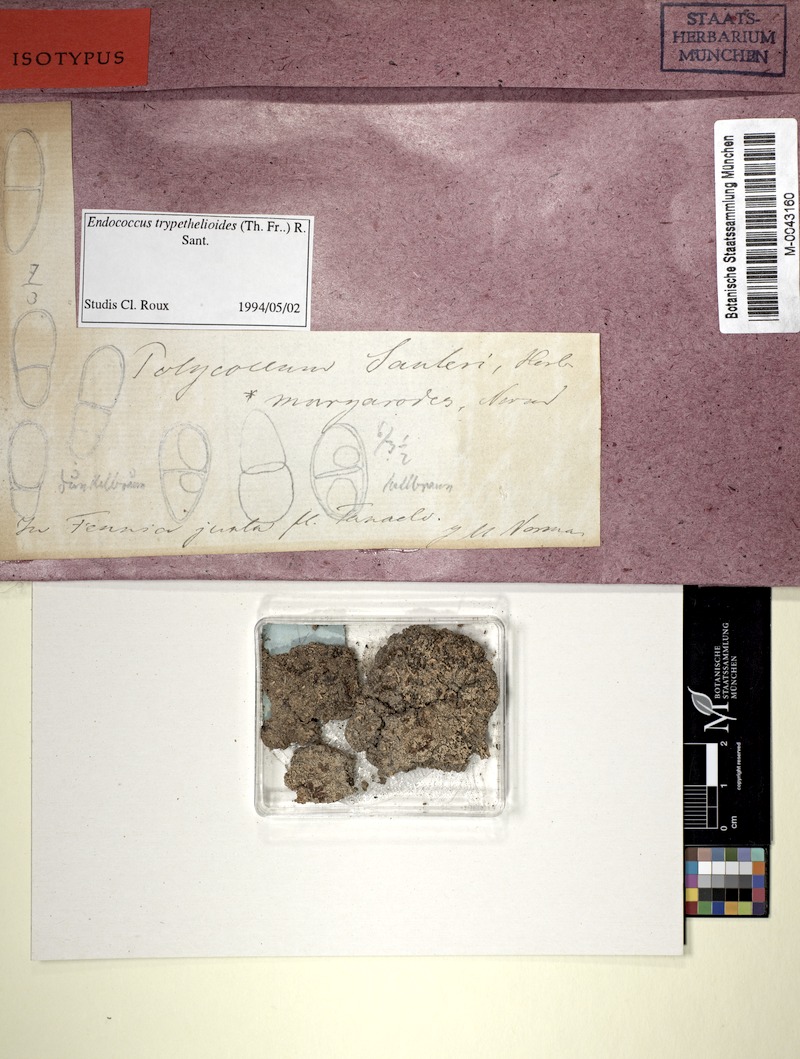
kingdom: Fungi
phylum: Ascomycota
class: Dothideomycetes
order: Trypetheliales
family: Polycoccaceae
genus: Polycoccum
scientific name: Polycoccum squamarioides
